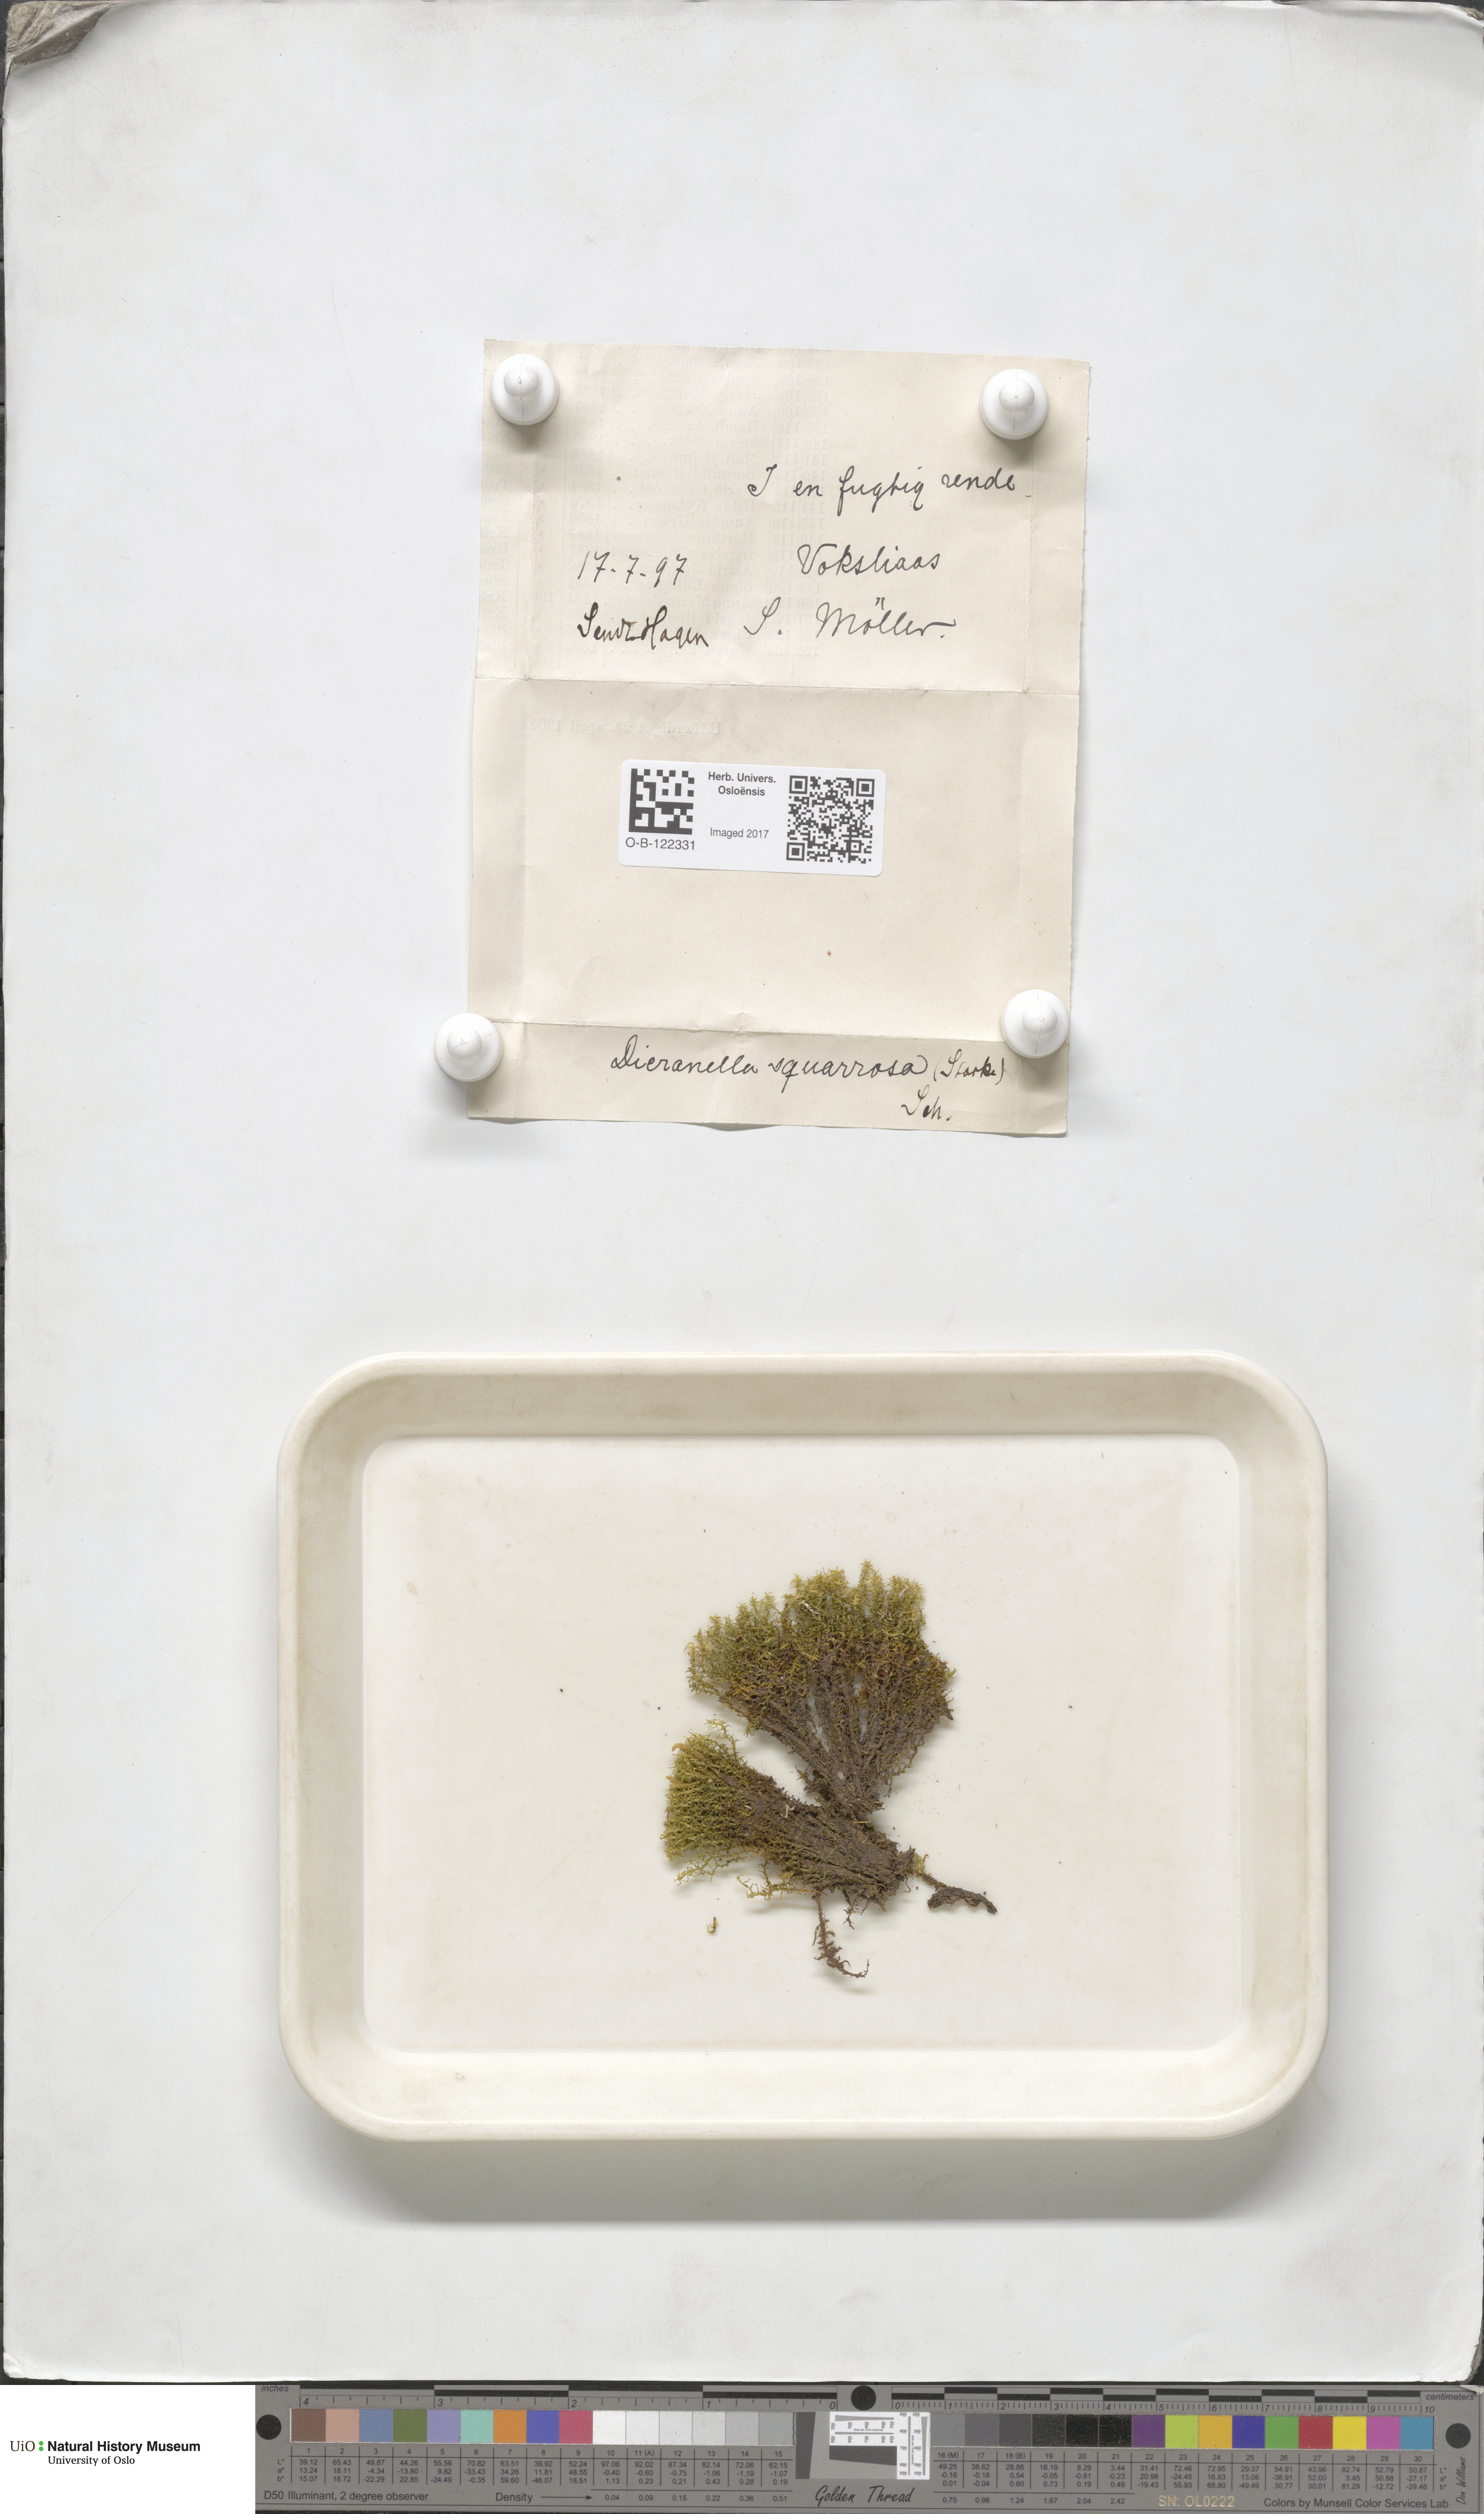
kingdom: Plantae
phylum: Bryophyta
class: Bryopsida
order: Dicranales
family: Aongstroemiaceae
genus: Diobelonella
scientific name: Diobelonella palustris
